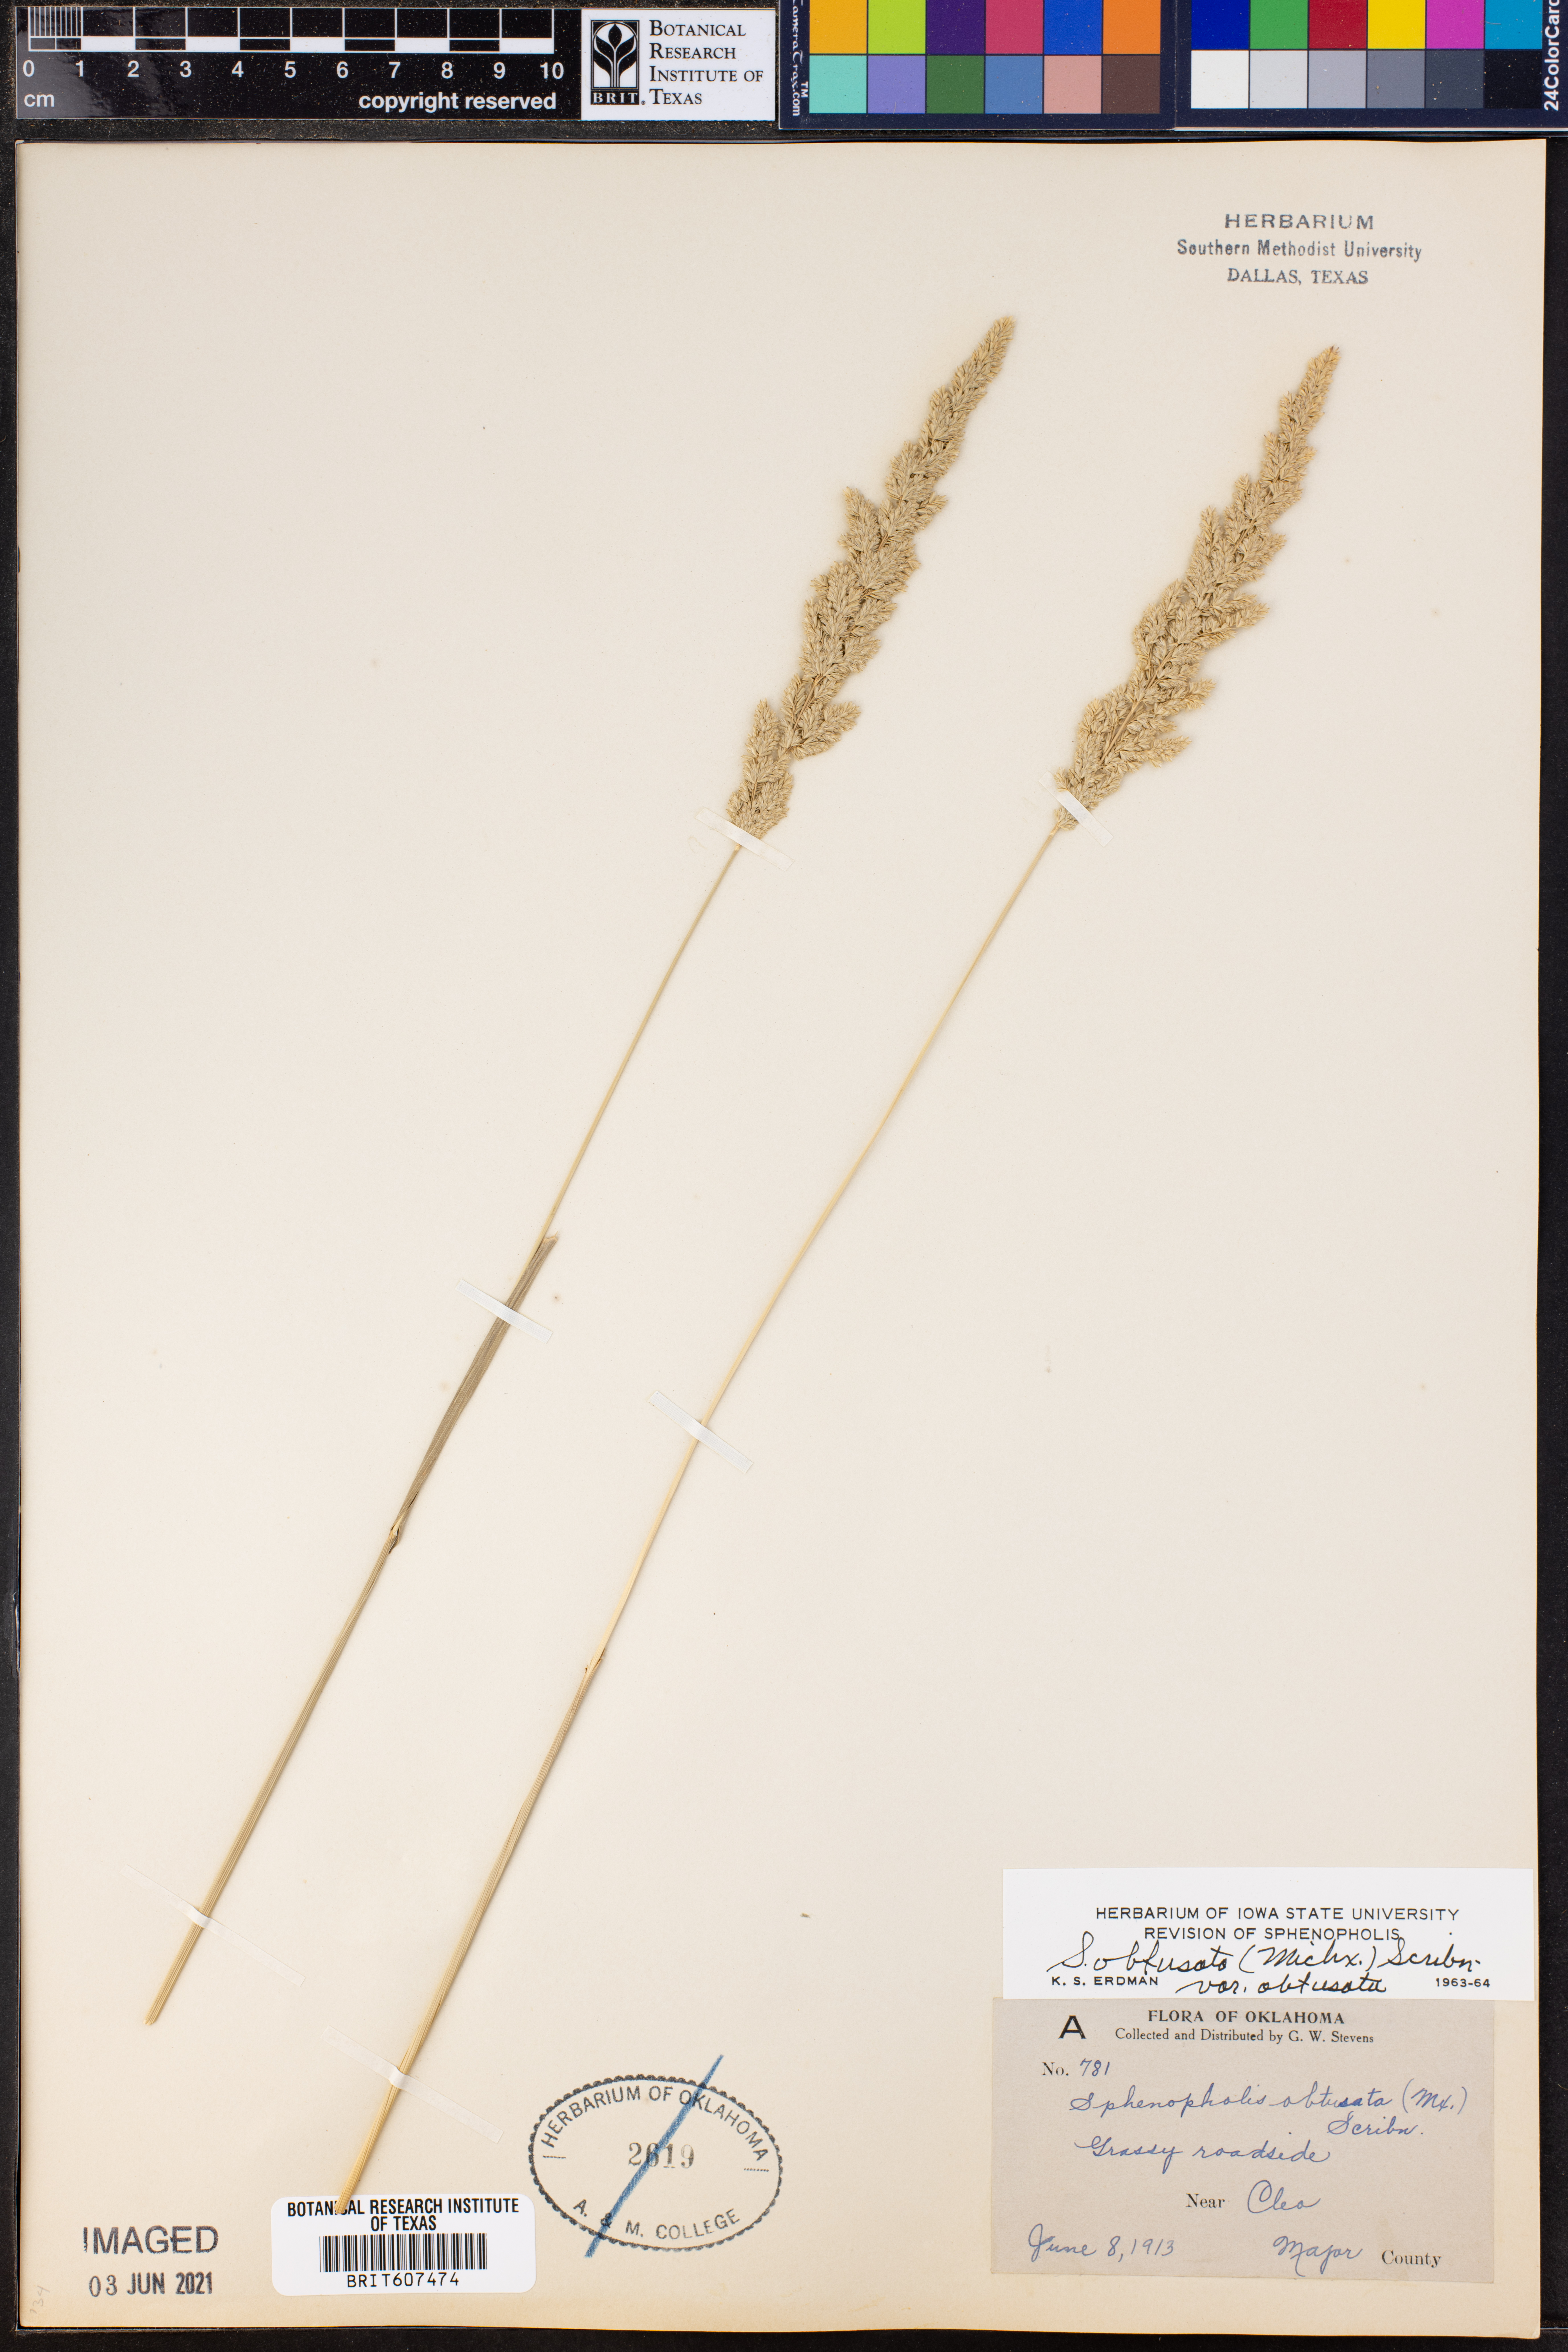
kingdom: Plantae
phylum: Tracheophyta
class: Liliopsida
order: Poales
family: Poaceae
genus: Sphenopholis
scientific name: Sphenopholis obtusata
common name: Prairie grass
